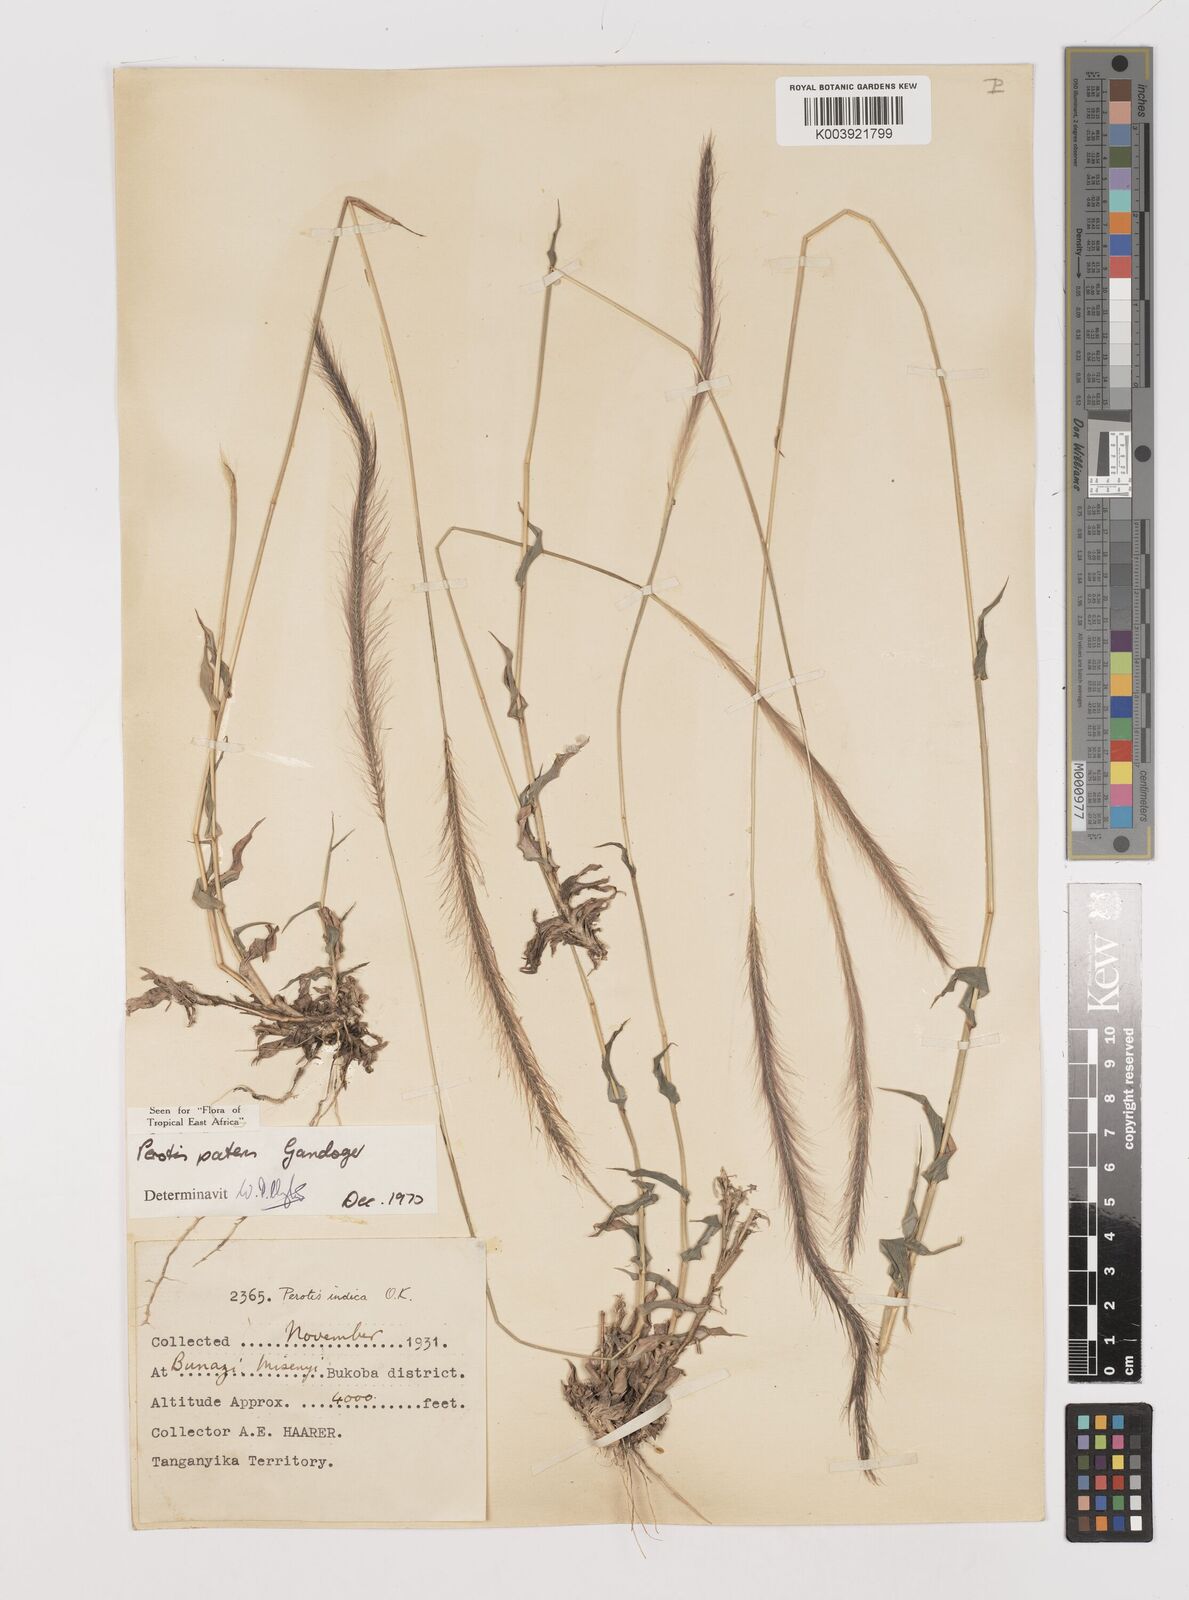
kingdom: Plantae
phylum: Tracheophyta
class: Liliopsida
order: Poales
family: Poaceae
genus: Perotis
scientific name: Perotis patens
